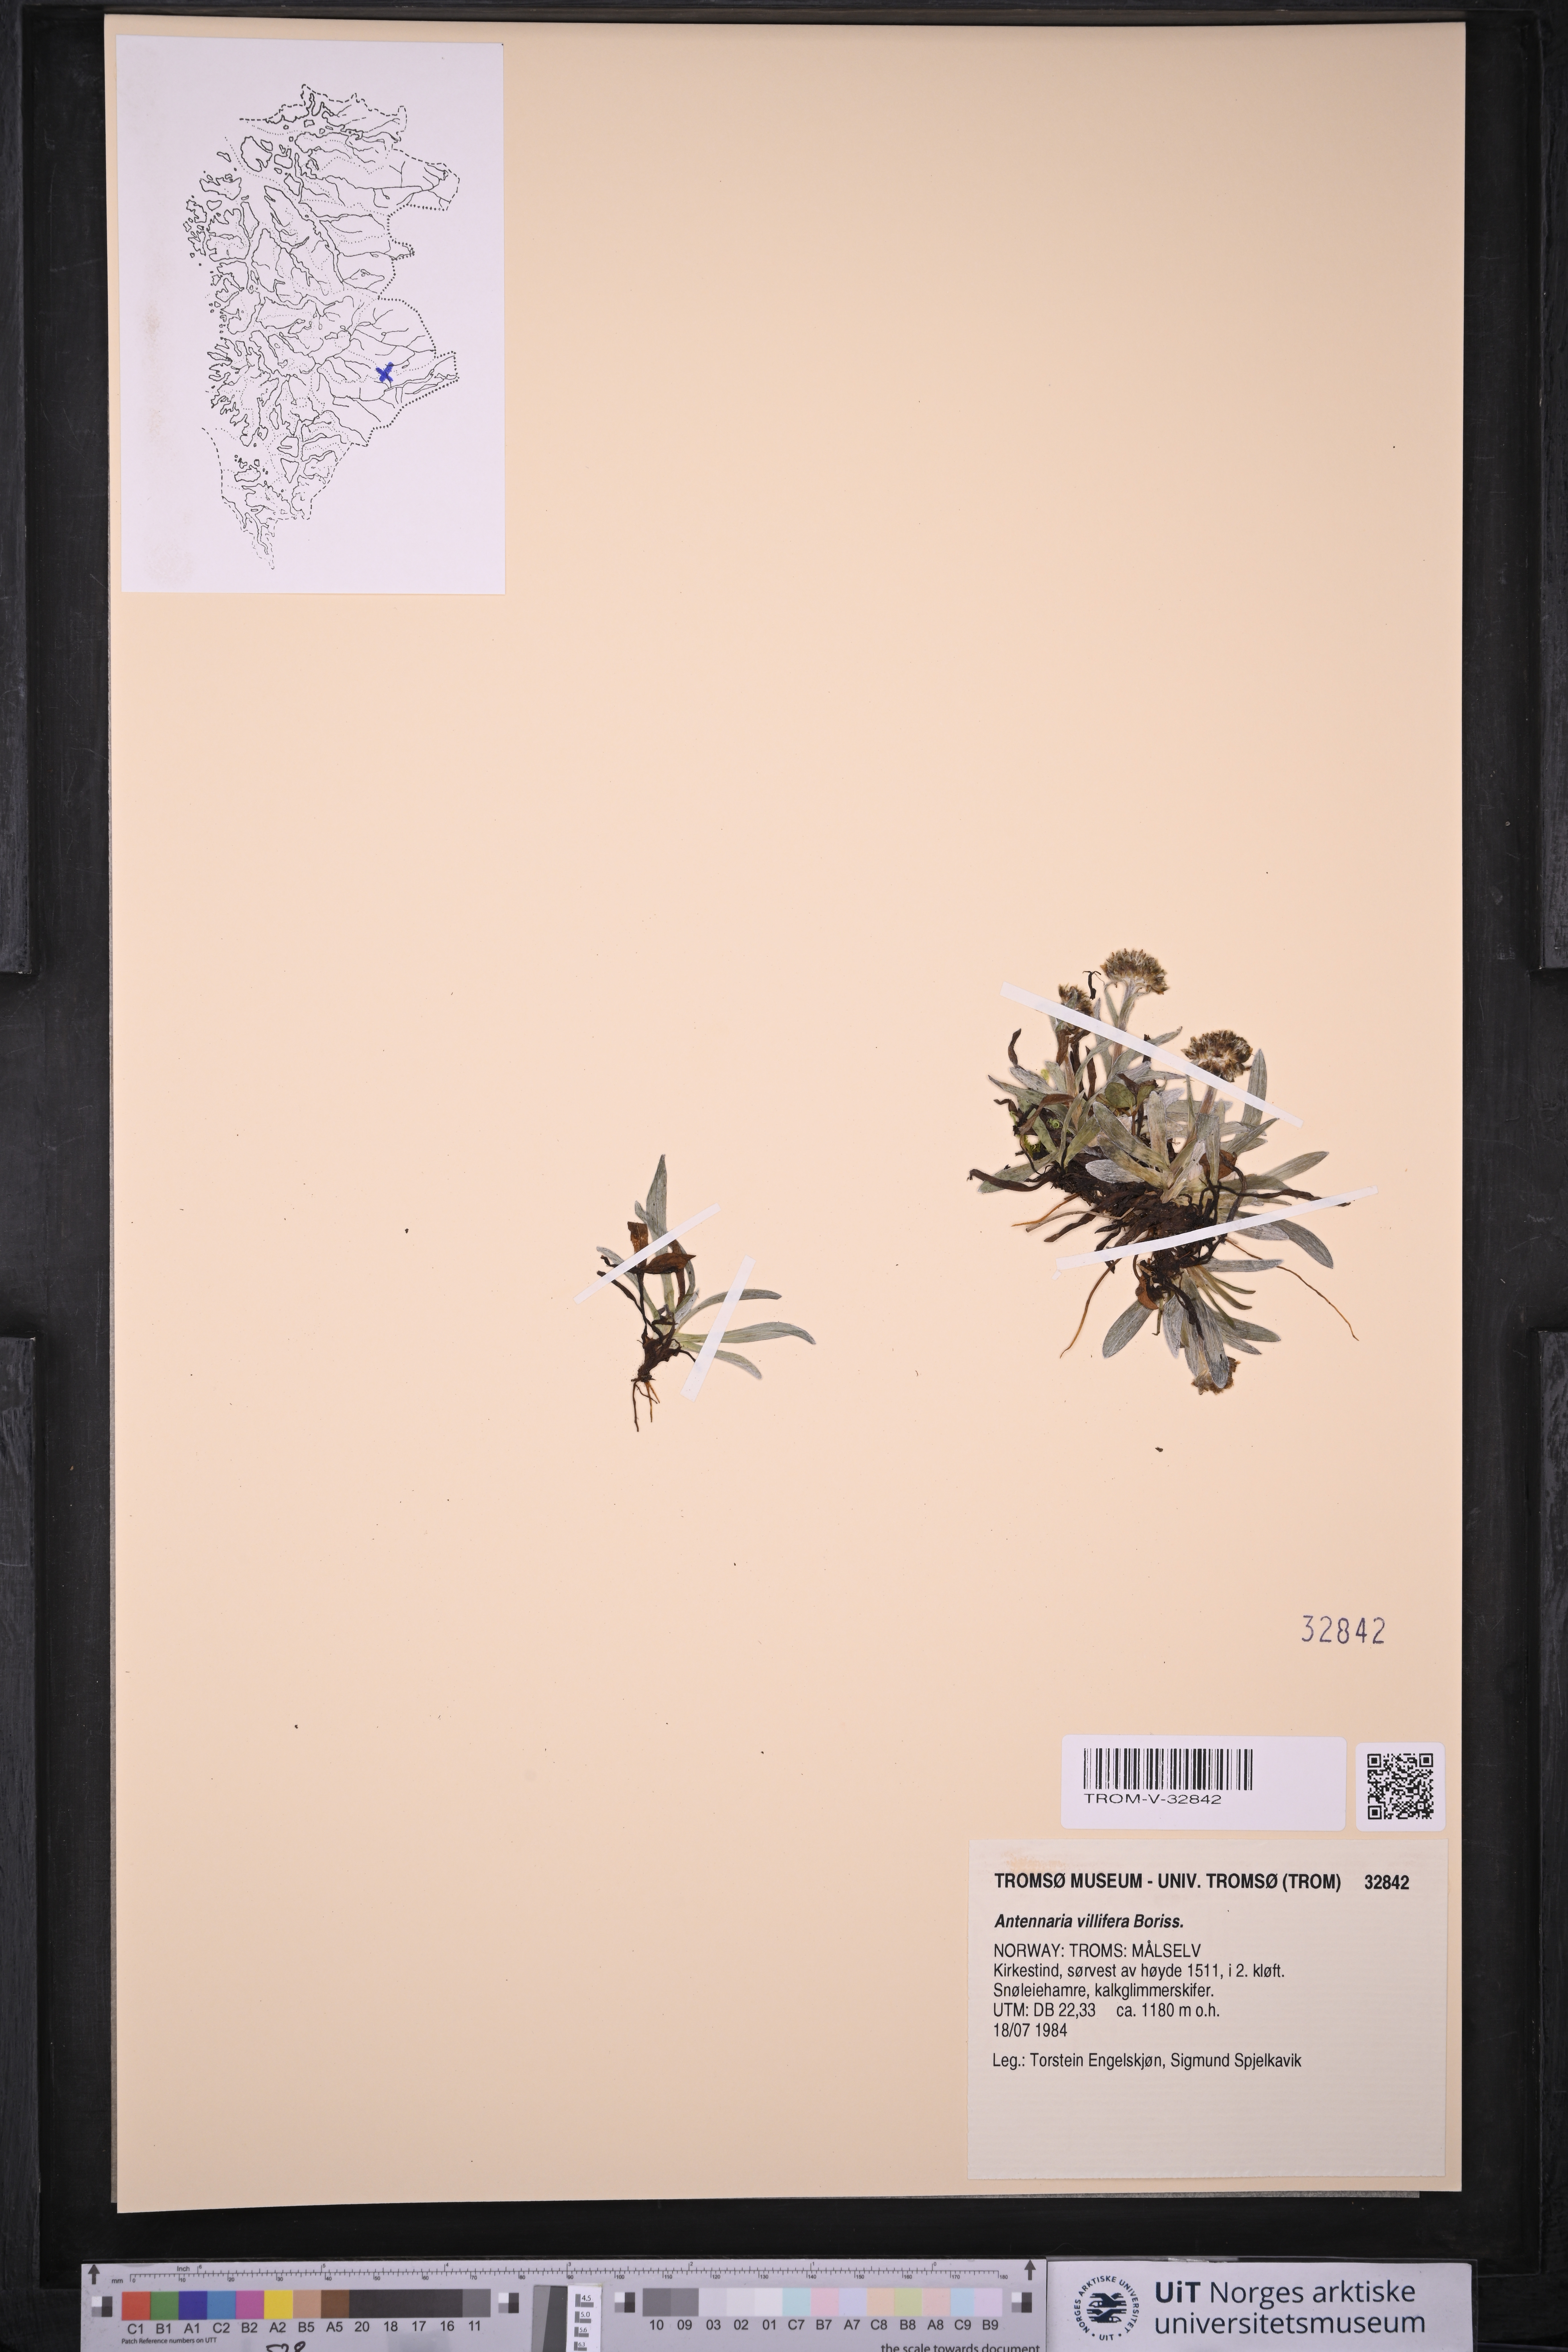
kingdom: Plantae
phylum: Tracheophyta
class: Magnoliopsida
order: Asterales
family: Asteraceae
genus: Antennaria
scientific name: Antennaria lanata
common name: Woolly pussytoes
